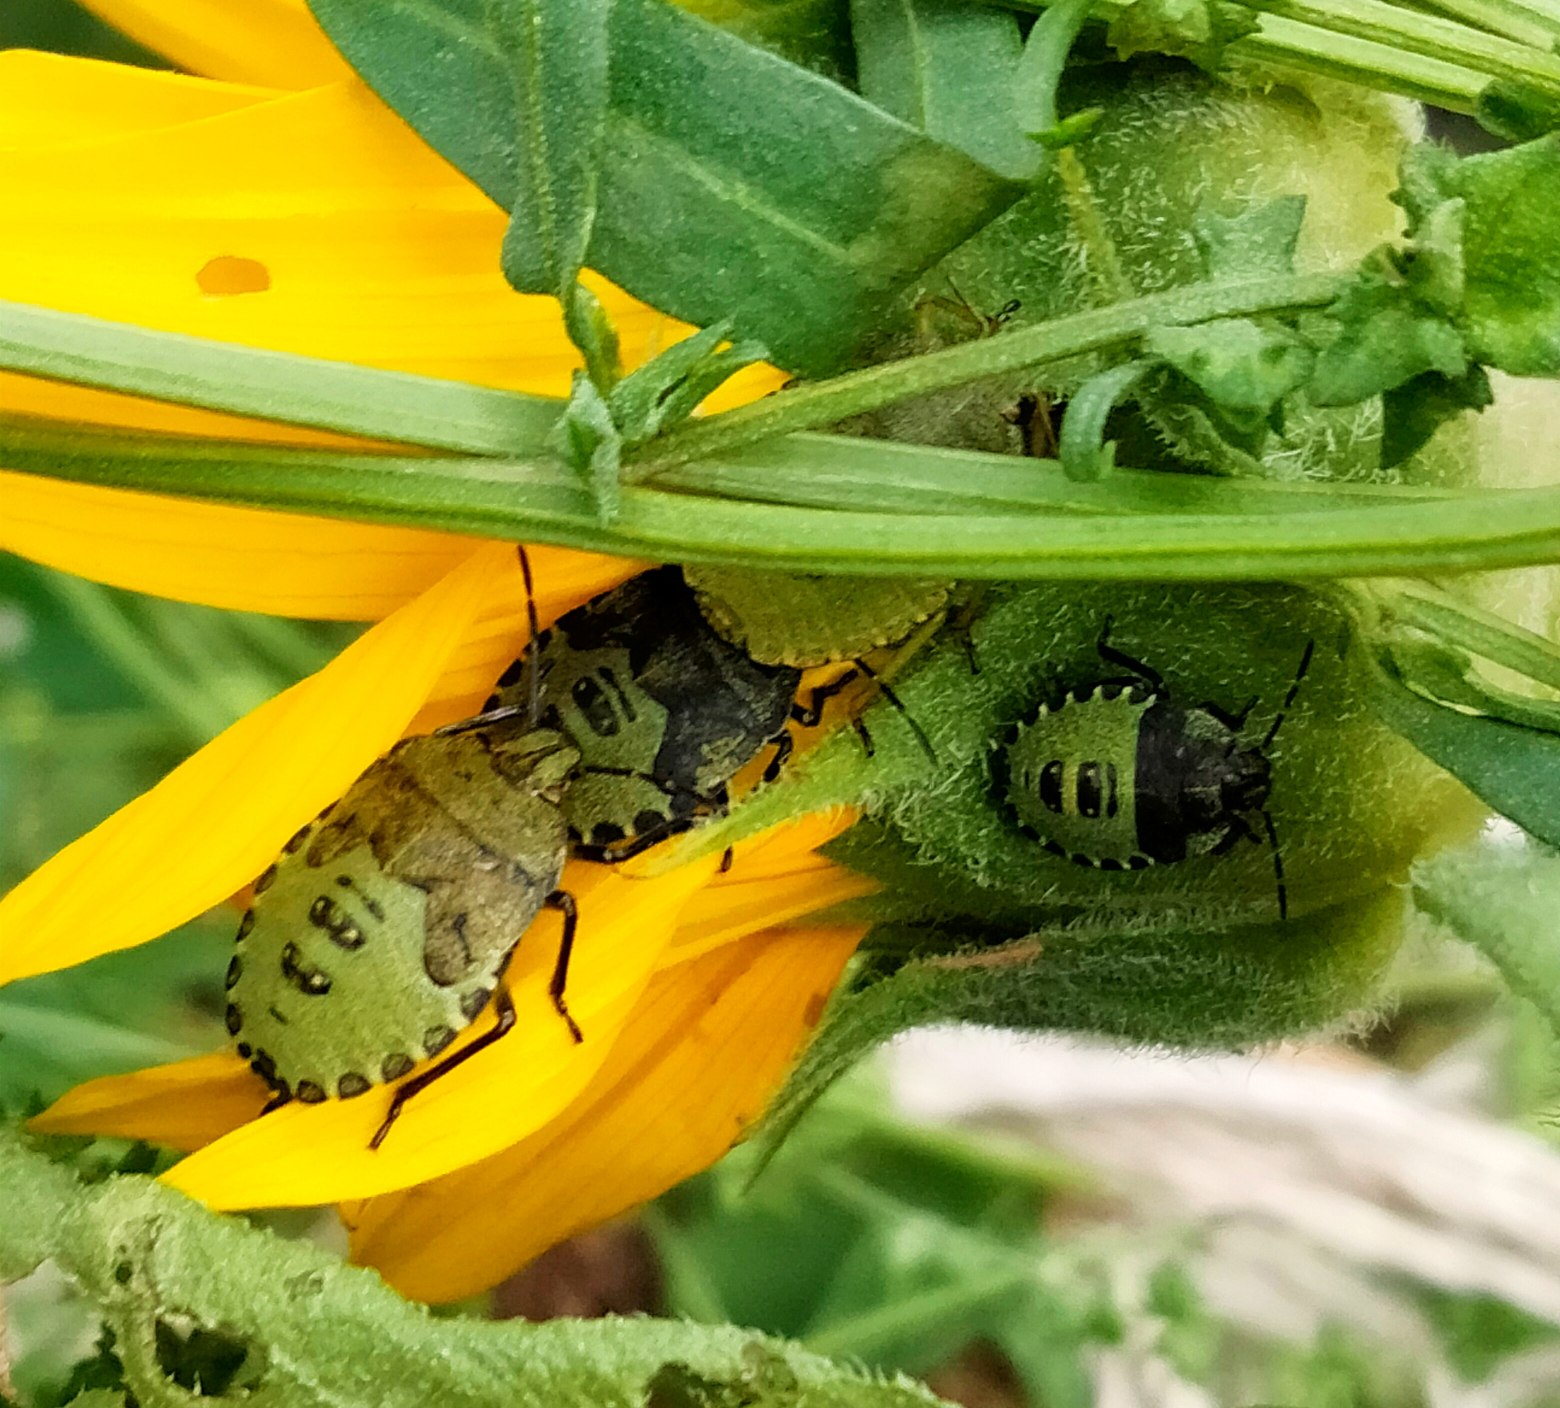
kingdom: Animalia
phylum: Arthropoda
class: Insecta
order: Hemiptera
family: Pentatomidae
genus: Palomena
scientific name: Palomena prasina
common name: Grøn bredtæge
